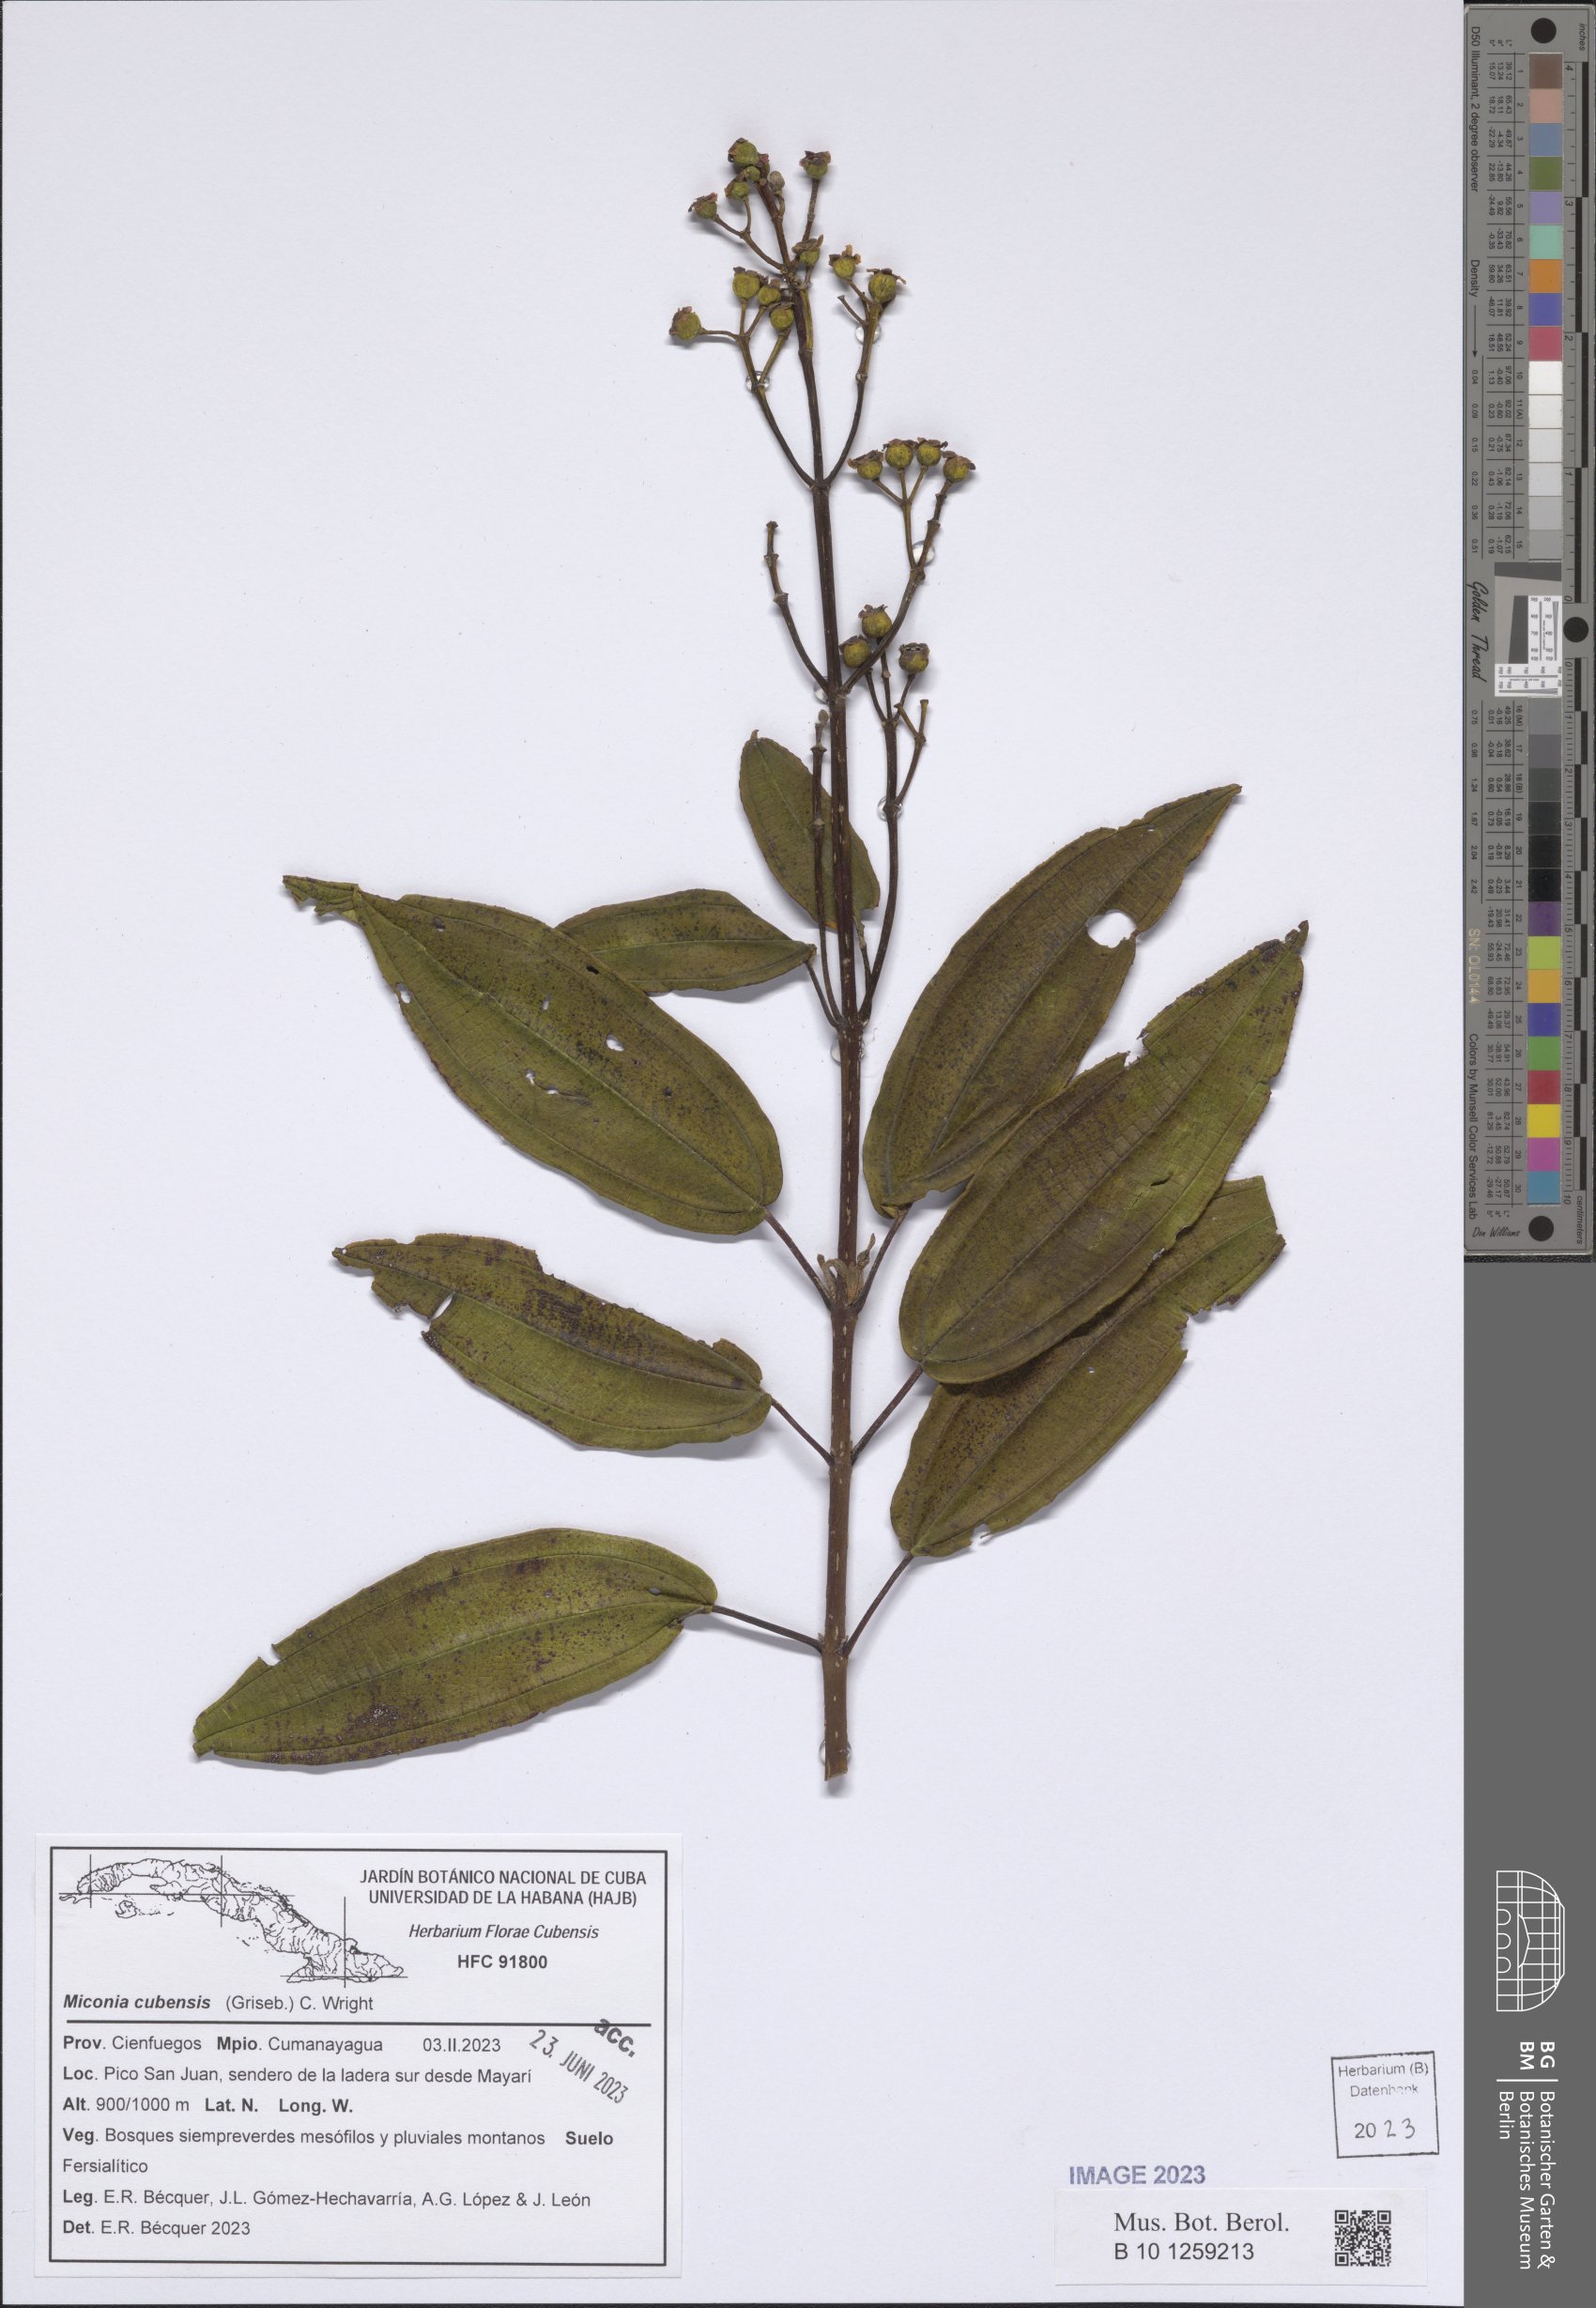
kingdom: Plantae
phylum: Tracheophyta
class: Magnoliopsida
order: Myrtales
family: Melastomataceae
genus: Miconia
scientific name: Miconia cubensis
